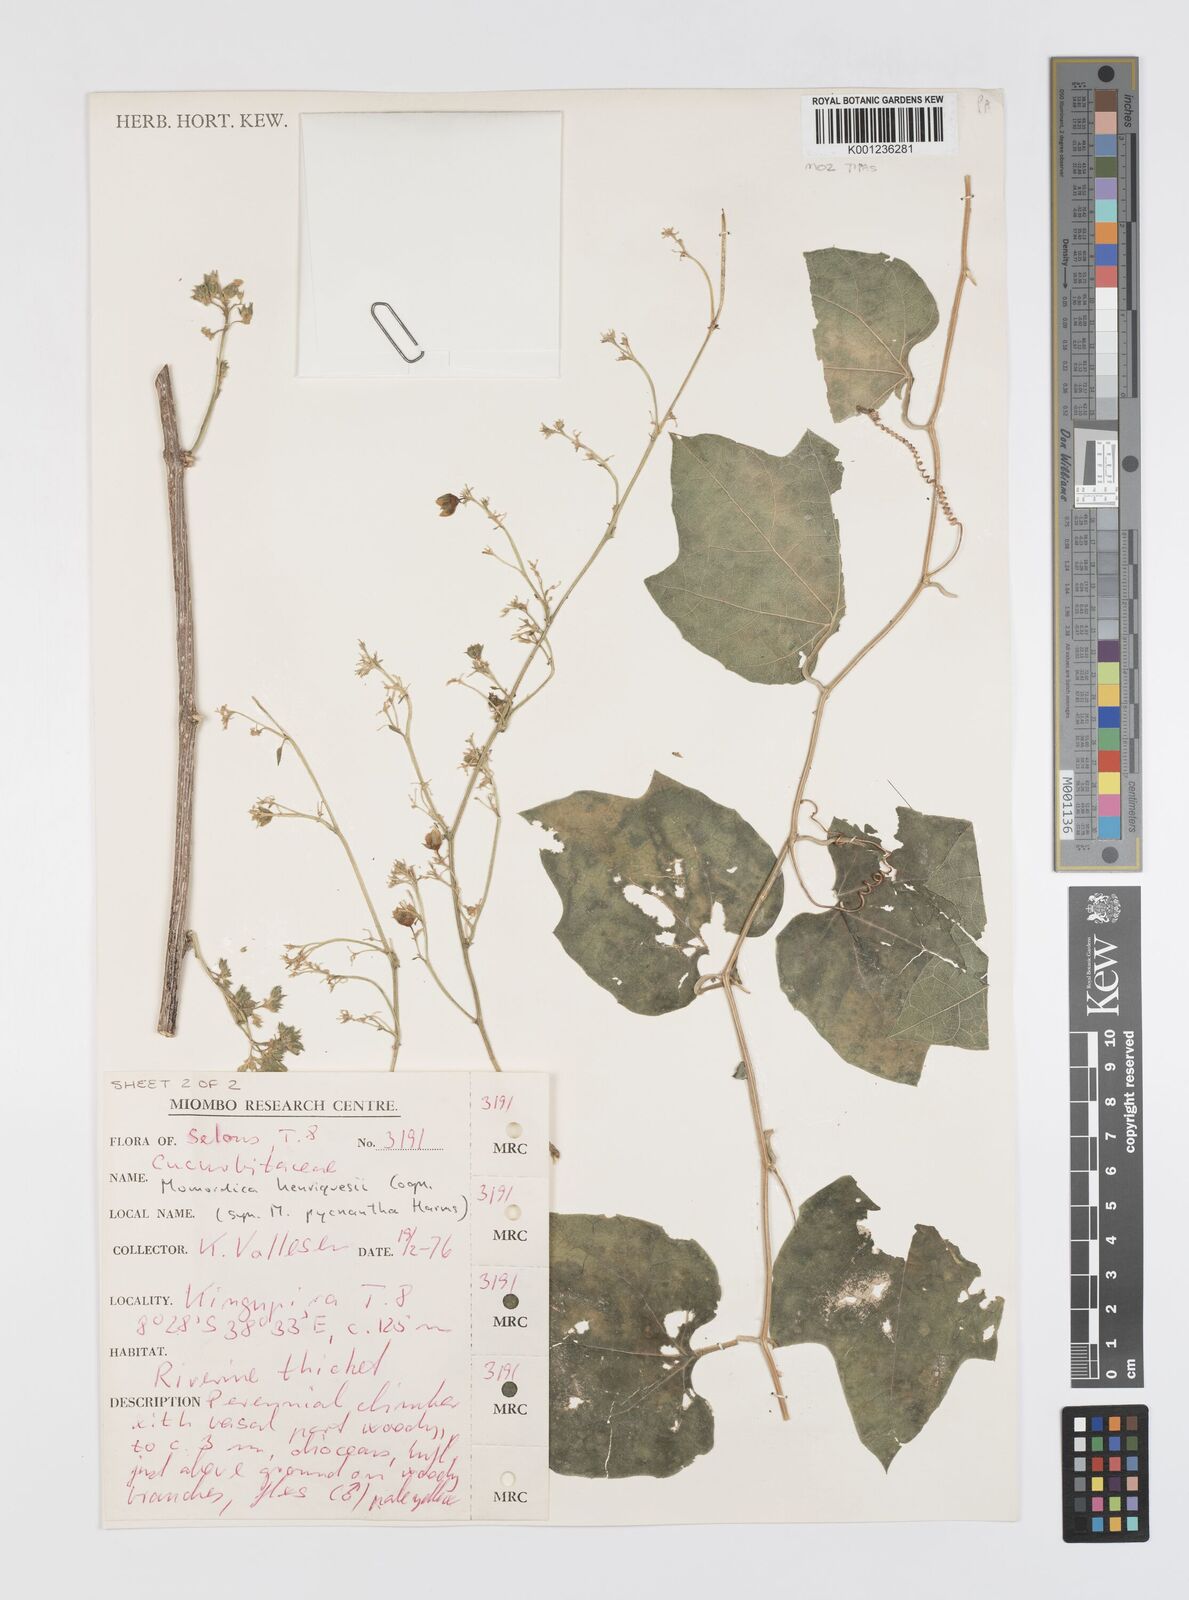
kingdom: Plantae
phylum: Tracheophyta
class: Magnoliopsida
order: Cucurbitales
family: Cucurbitaceae
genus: Momordica
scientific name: Momordica henriquesii
